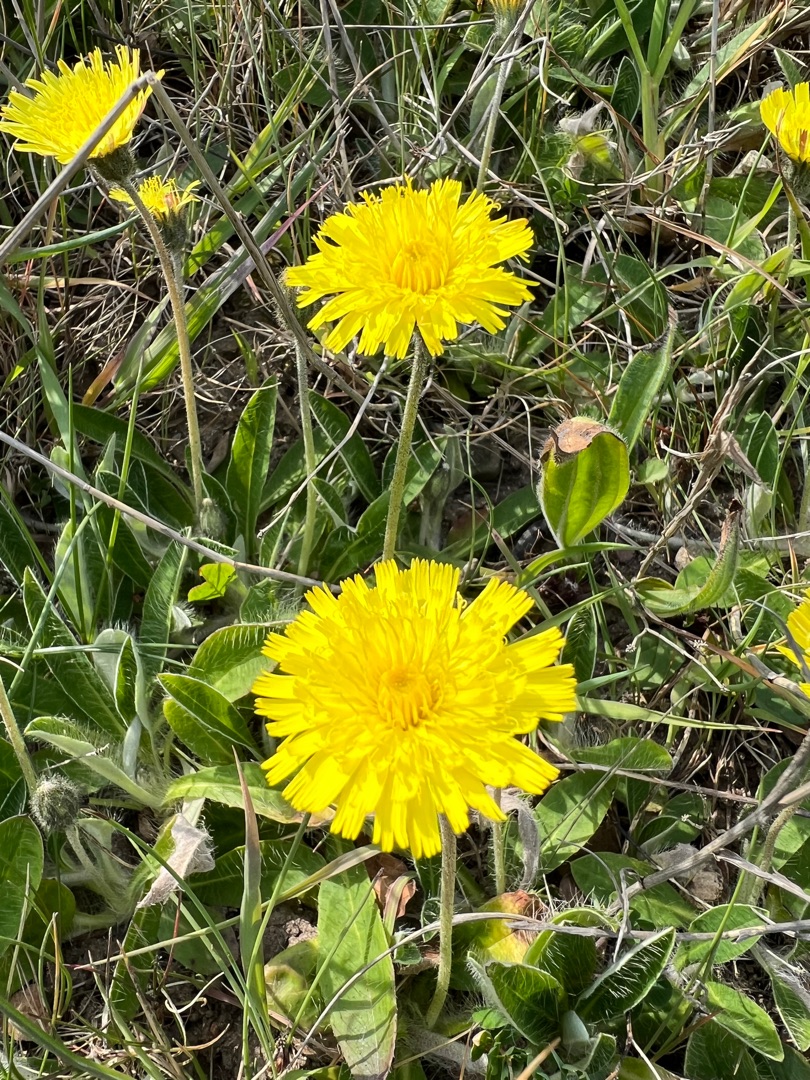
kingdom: Plantae
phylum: Tracheophyta
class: Magnoliopsida
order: Asterales
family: Asteraceae
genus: Pilosella
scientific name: Pilosella officinarum
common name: Håret høgeurt
